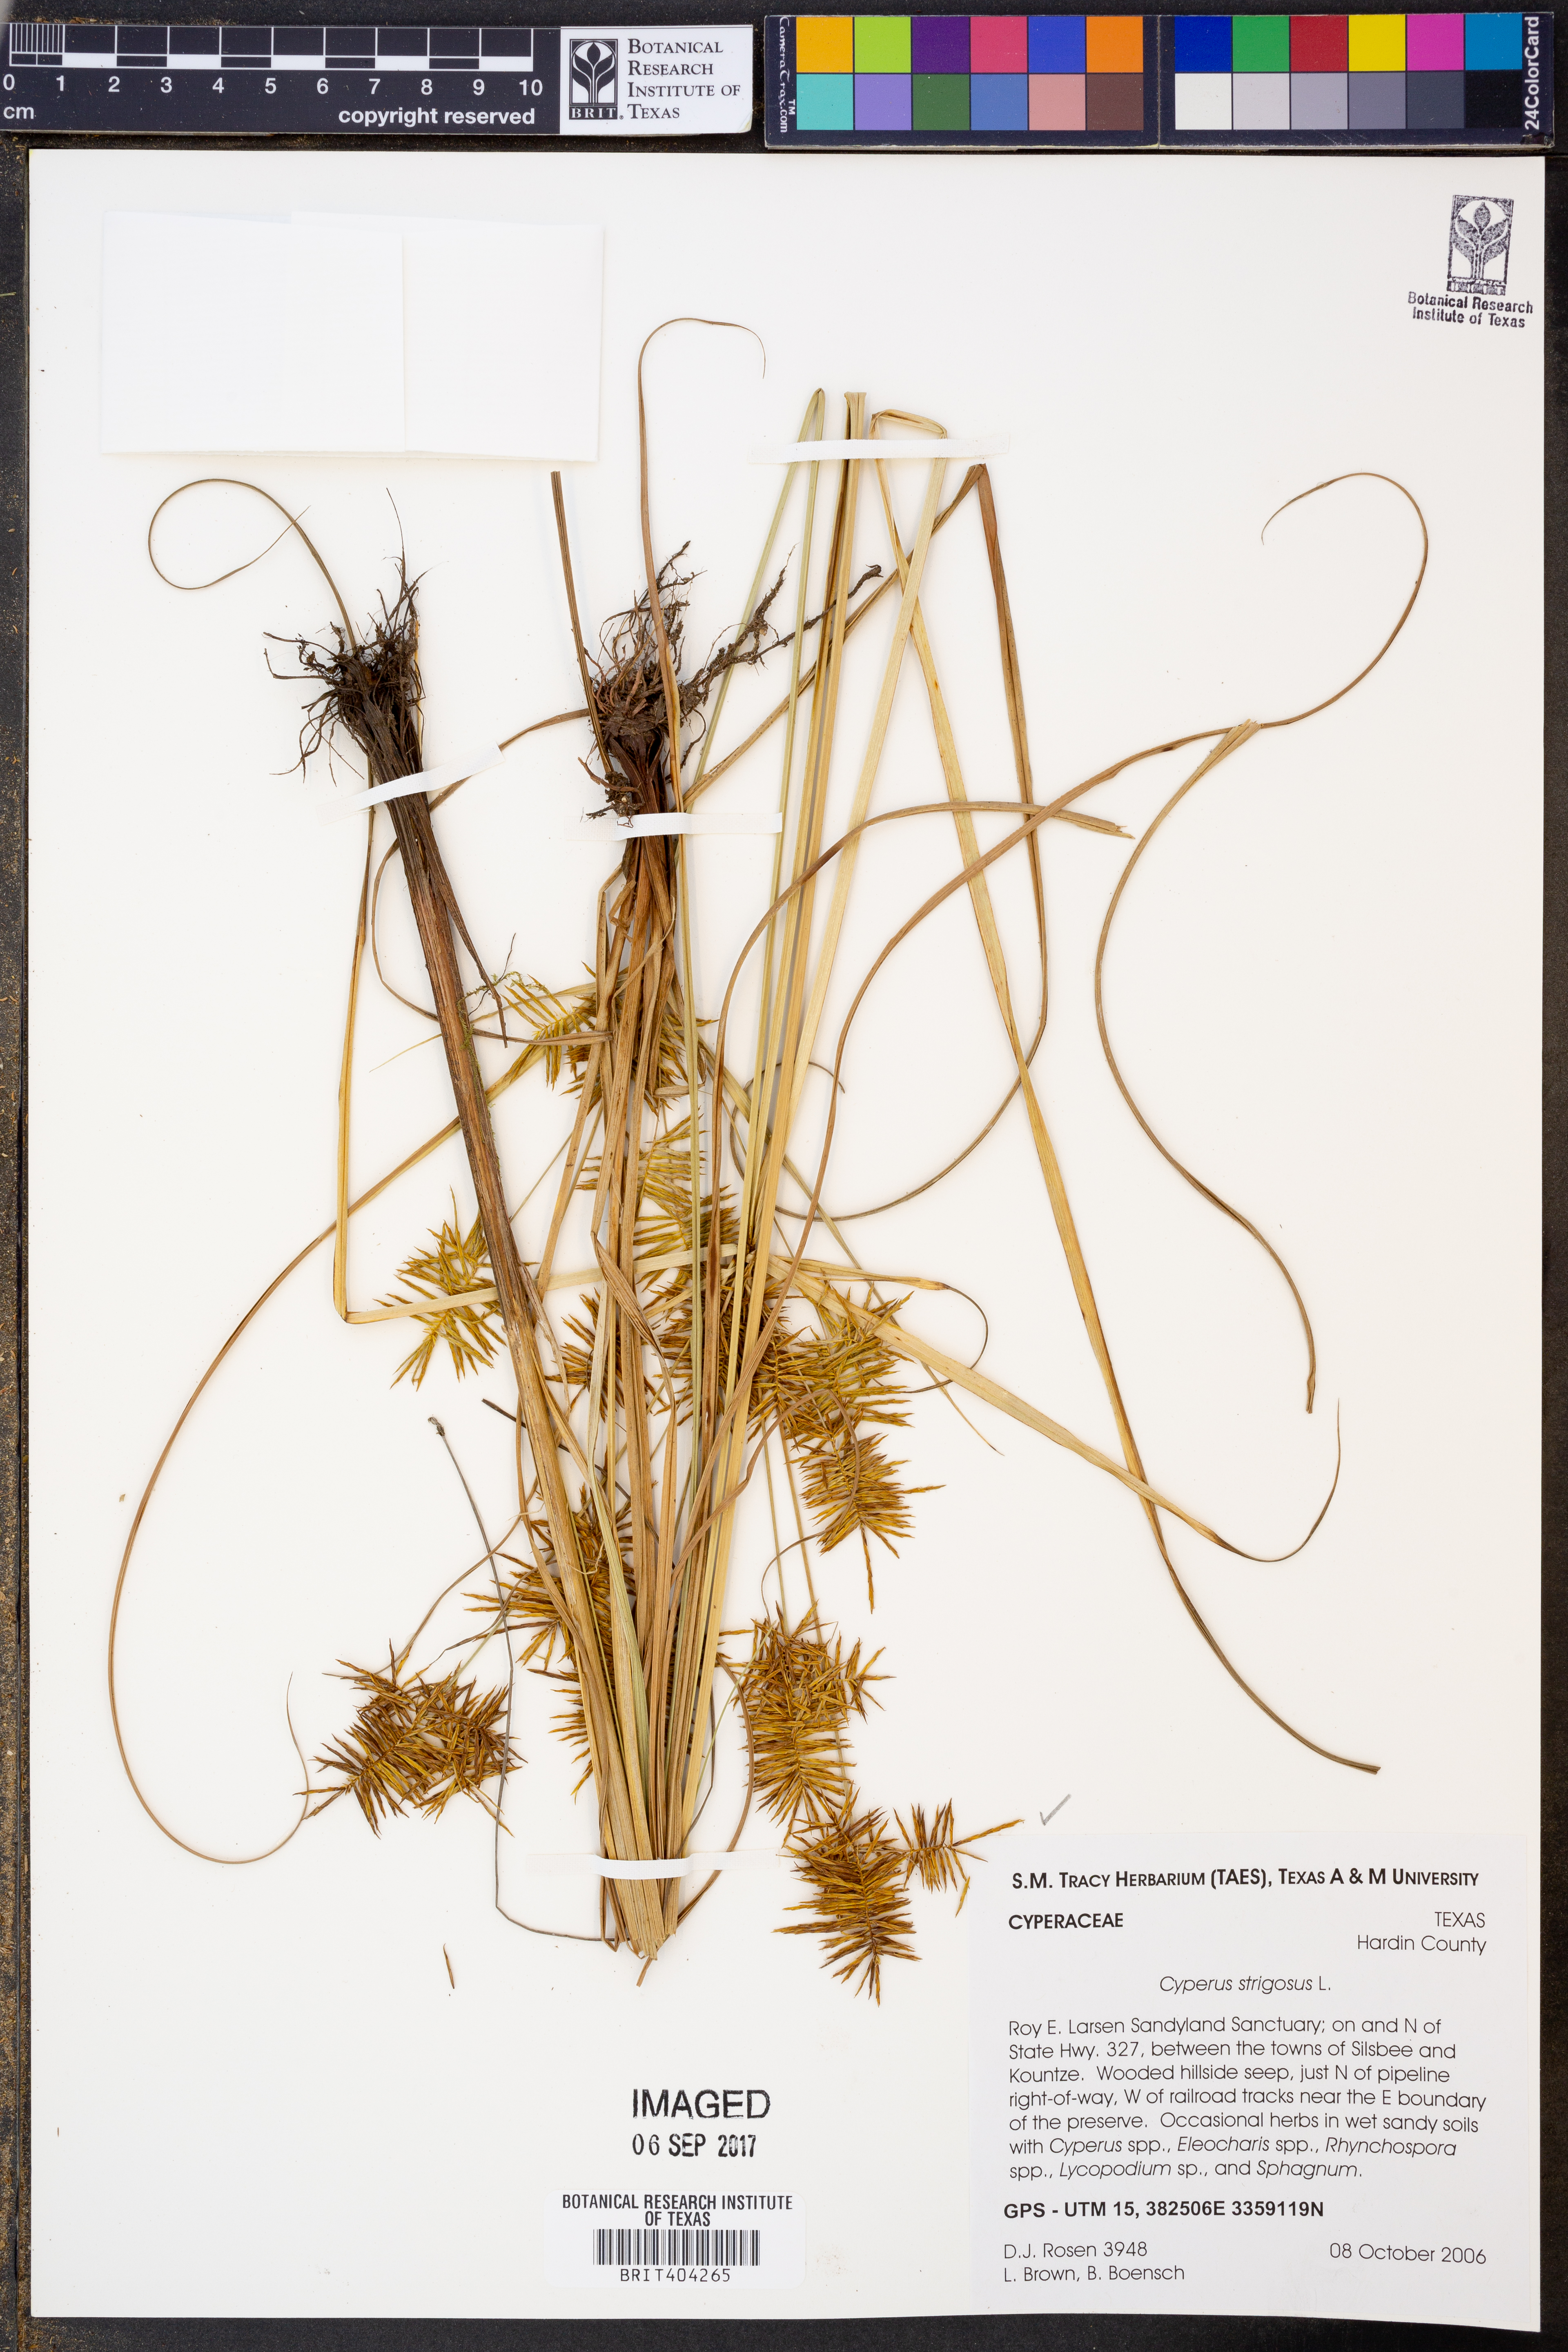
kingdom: Plantae
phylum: Tracheophyta
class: Liliopsida
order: Poales
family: Cyperaceae
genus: Cyperus
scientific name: Cyperus strigosus
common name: False nutsedge
